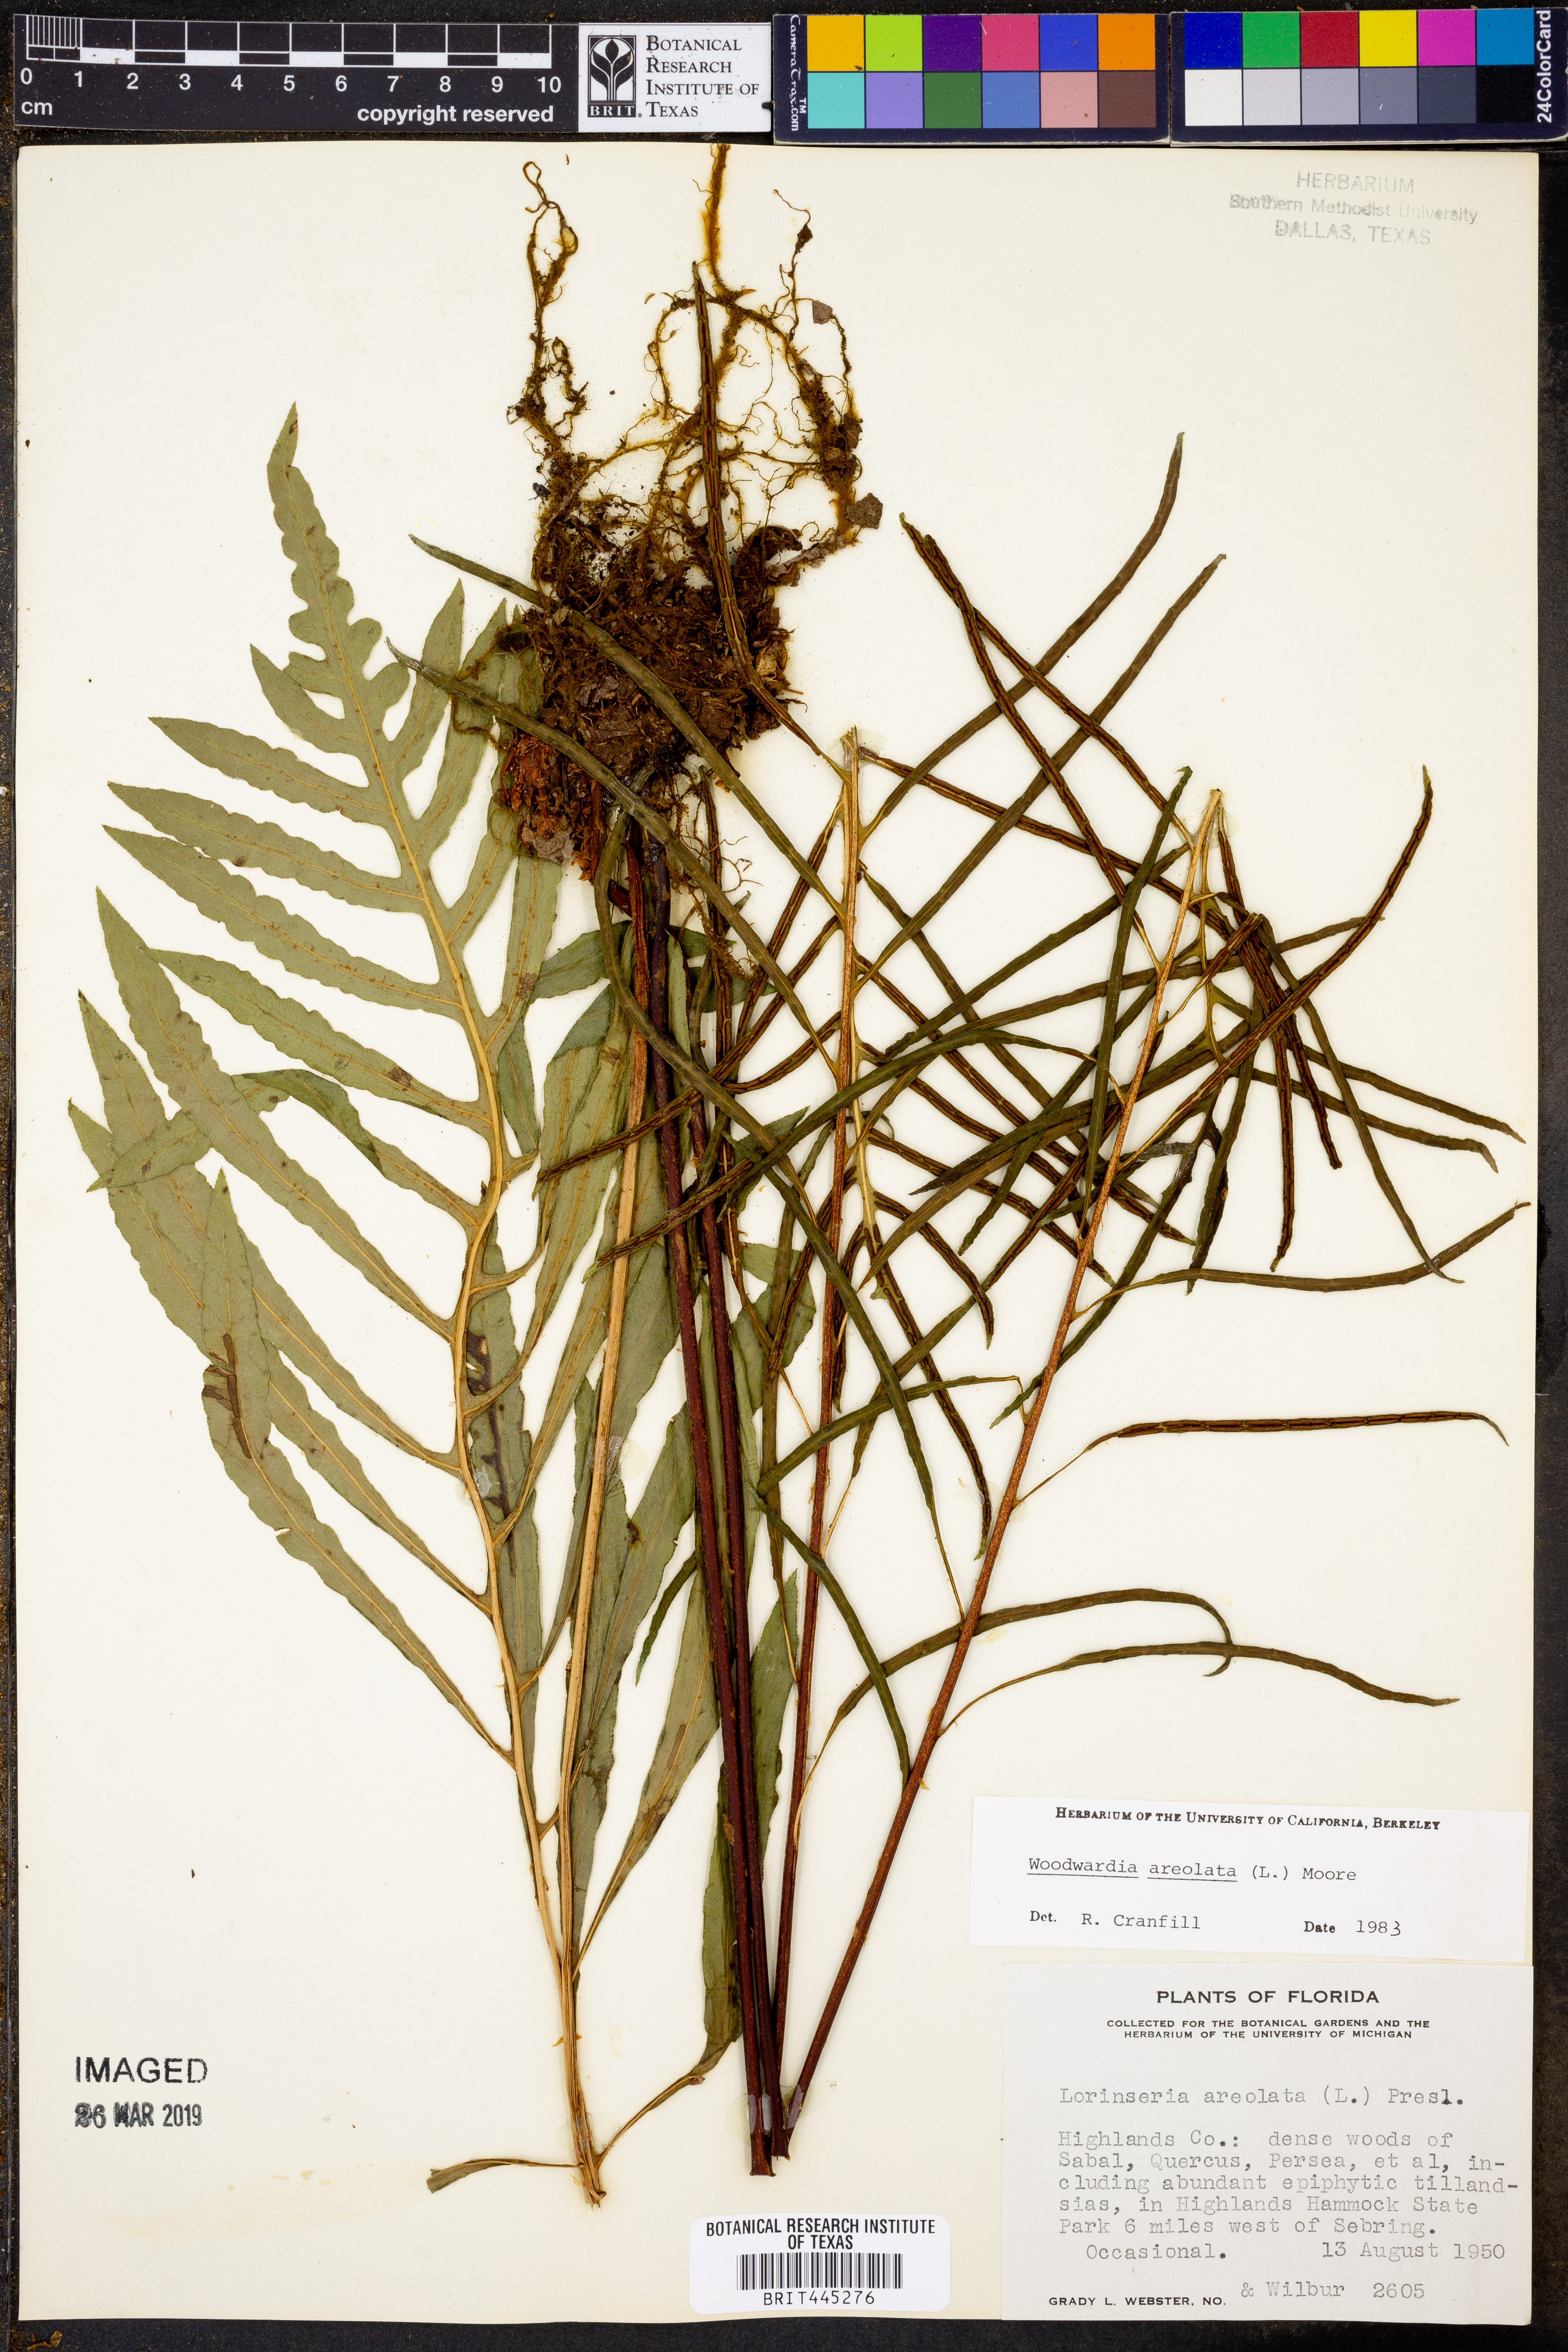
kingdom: Plantae
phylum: Tracheophyta
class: Polypodiopsida
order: Polypodiales
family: Blechnaceae
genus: Lorinseria
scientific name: Lorinseria areolata
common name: Dwarf chain fern
